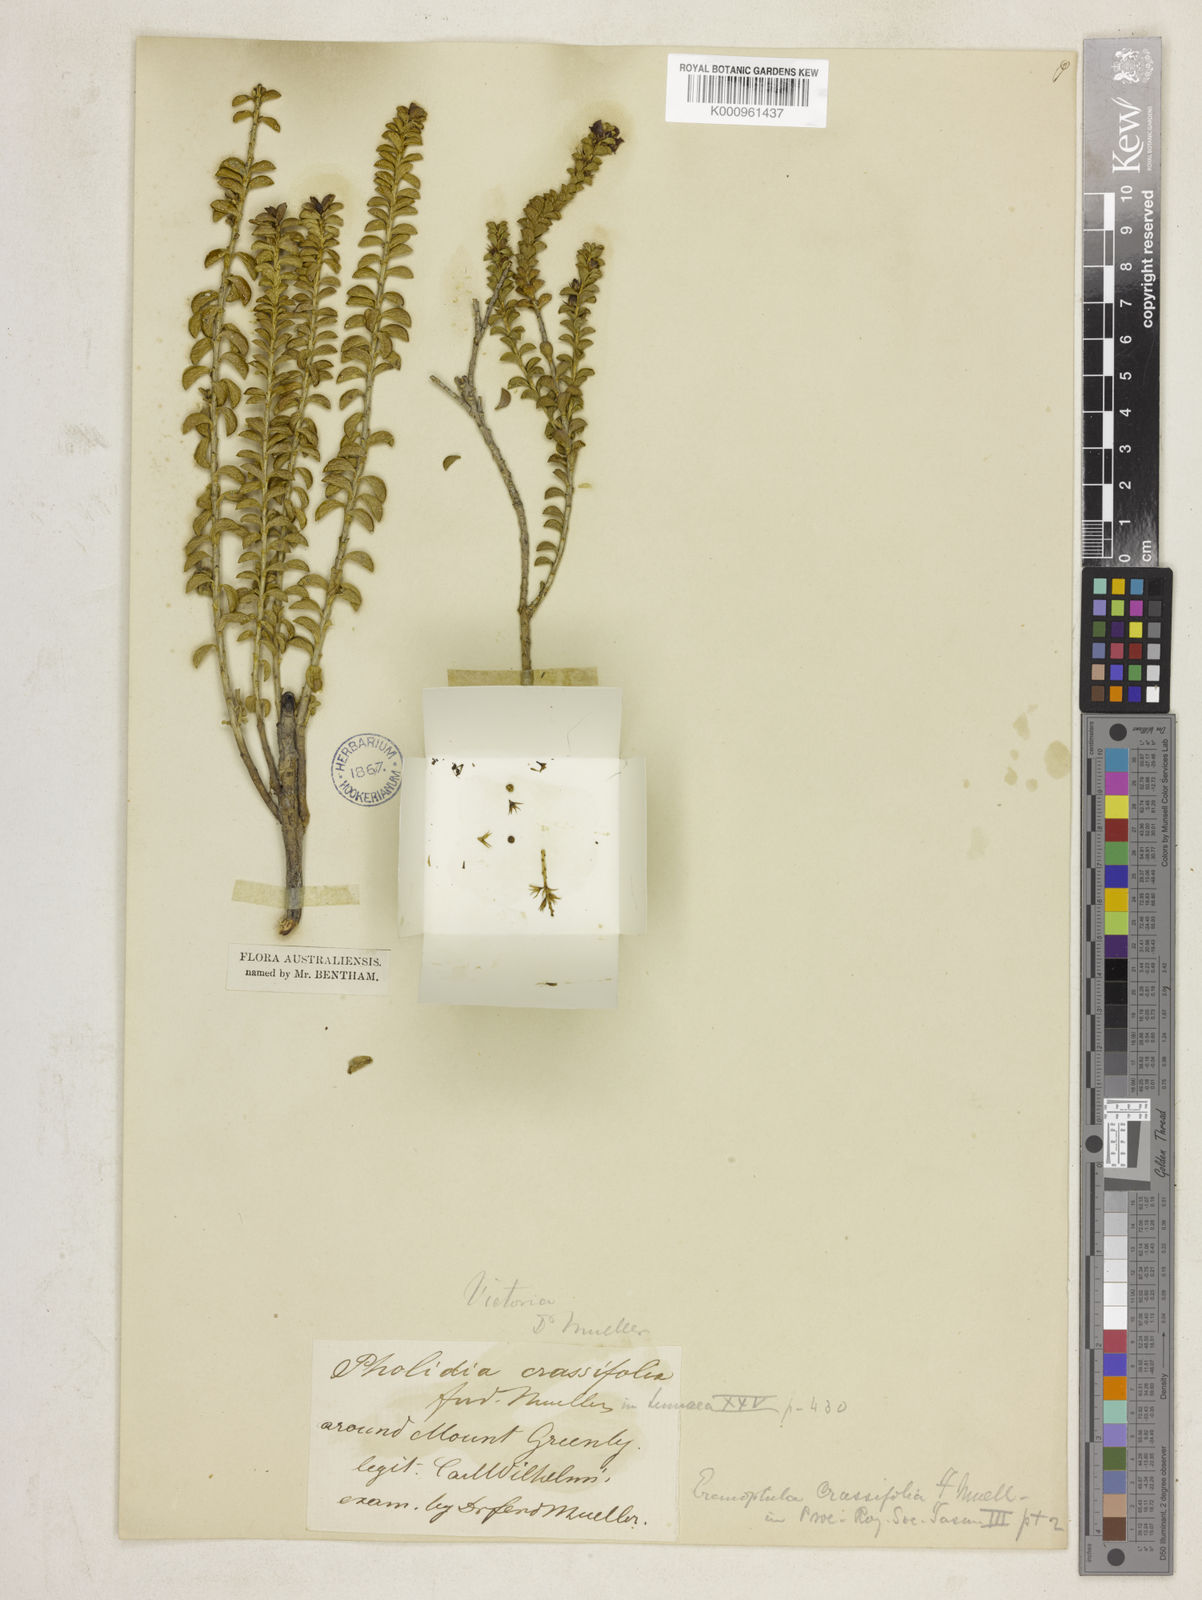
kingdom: Plantae
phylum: Tracheophyta
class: Magnoliopsida
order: Lamiales
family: Scrophulariaceae
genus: Eremophila
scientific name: Eremophila crassifolia
